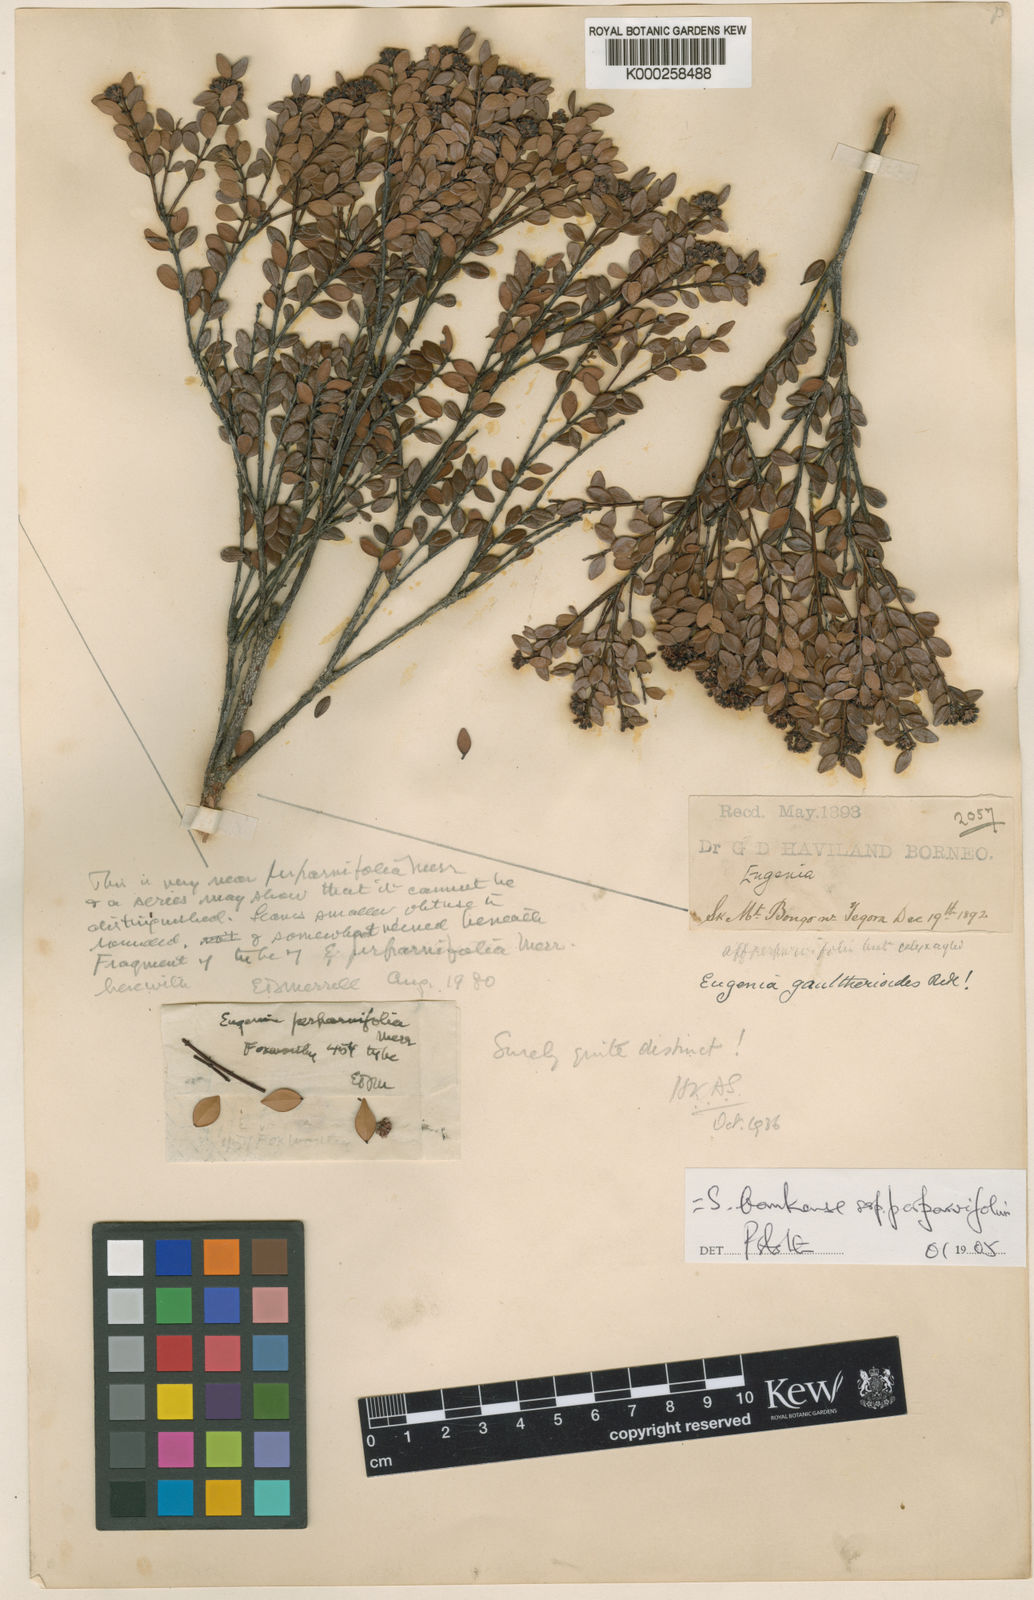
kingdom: Plantae
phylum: Tracheophyta
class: Magnoliopsida
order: Myrtales
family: Myrtaceae
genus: Syzygium
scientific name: Syzygium bankense
